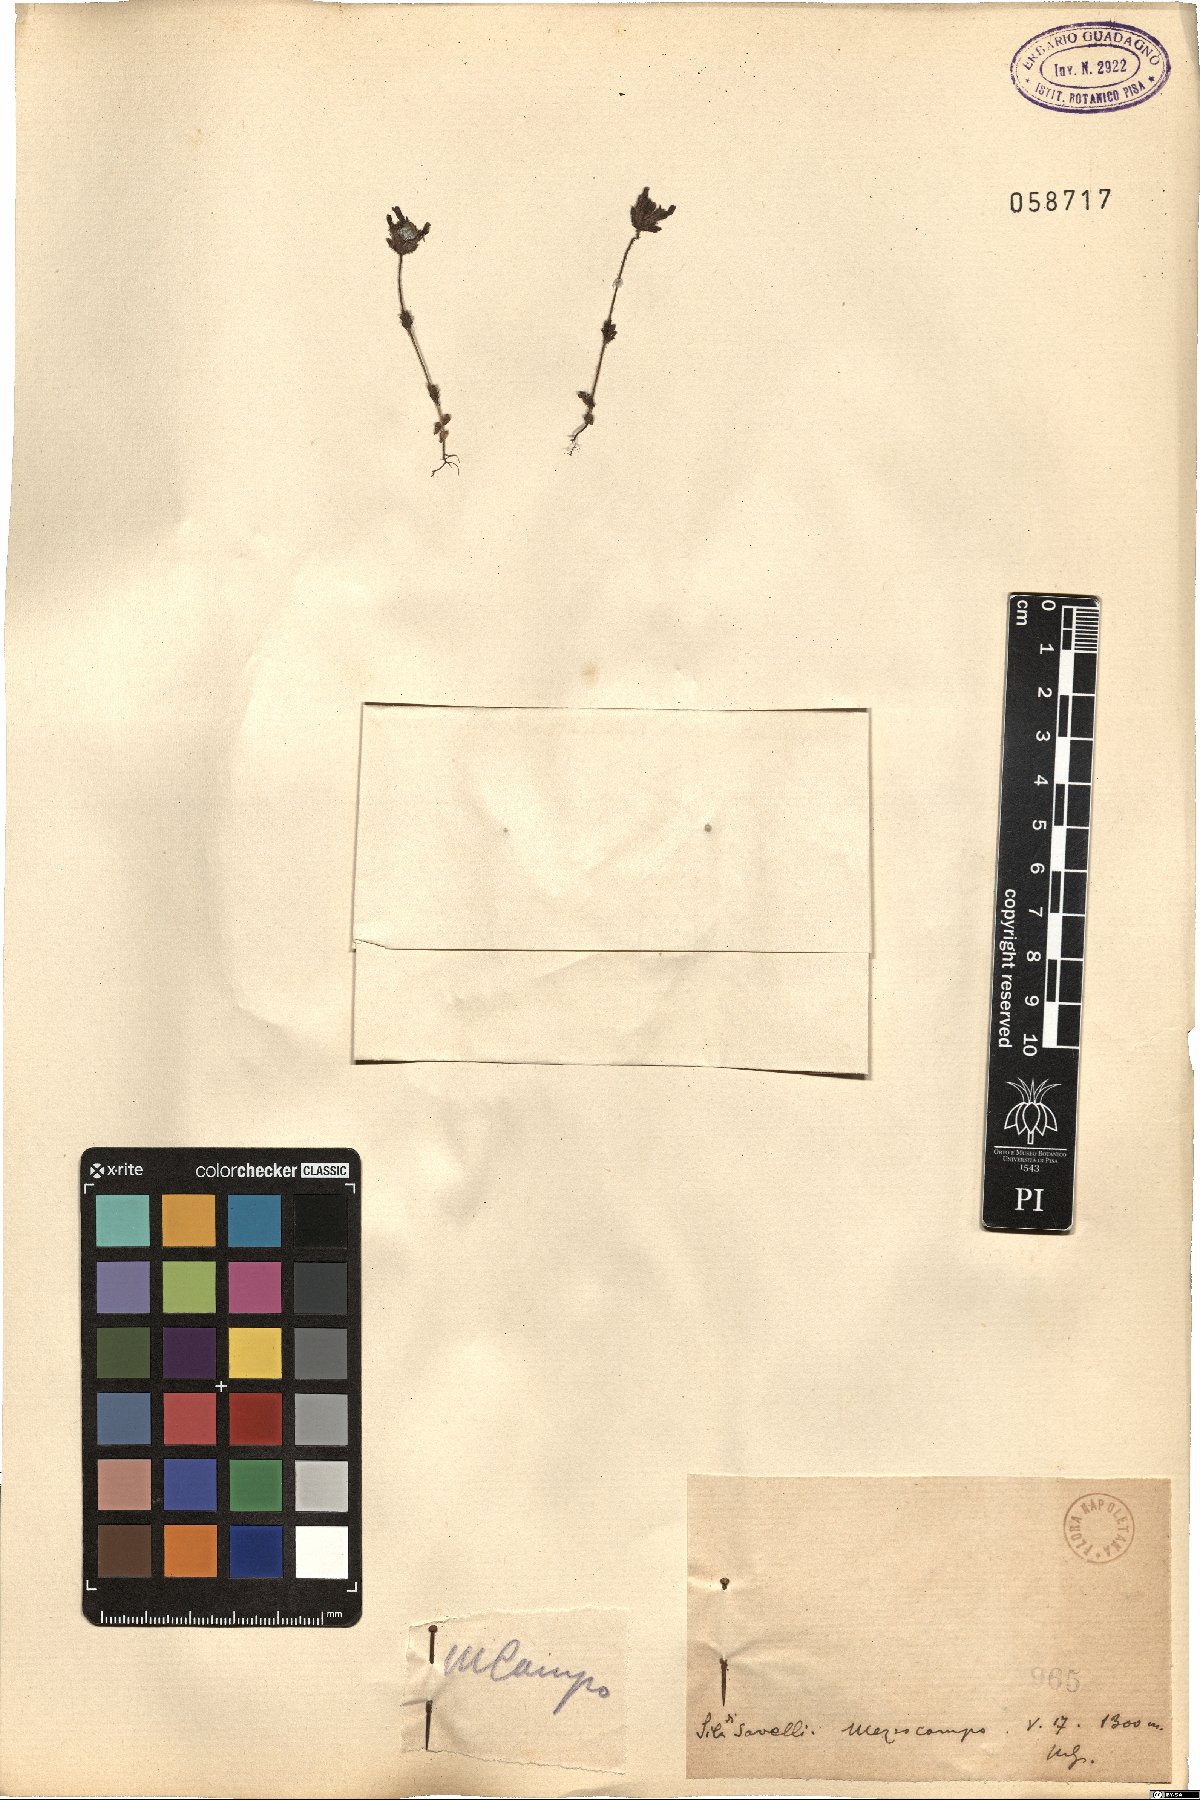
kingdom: Plantae
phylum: Tracheophyta
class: Magnoliopsida
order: Lamiales
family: Orobanchaceae
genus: Bartsia
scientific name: Bartsia
